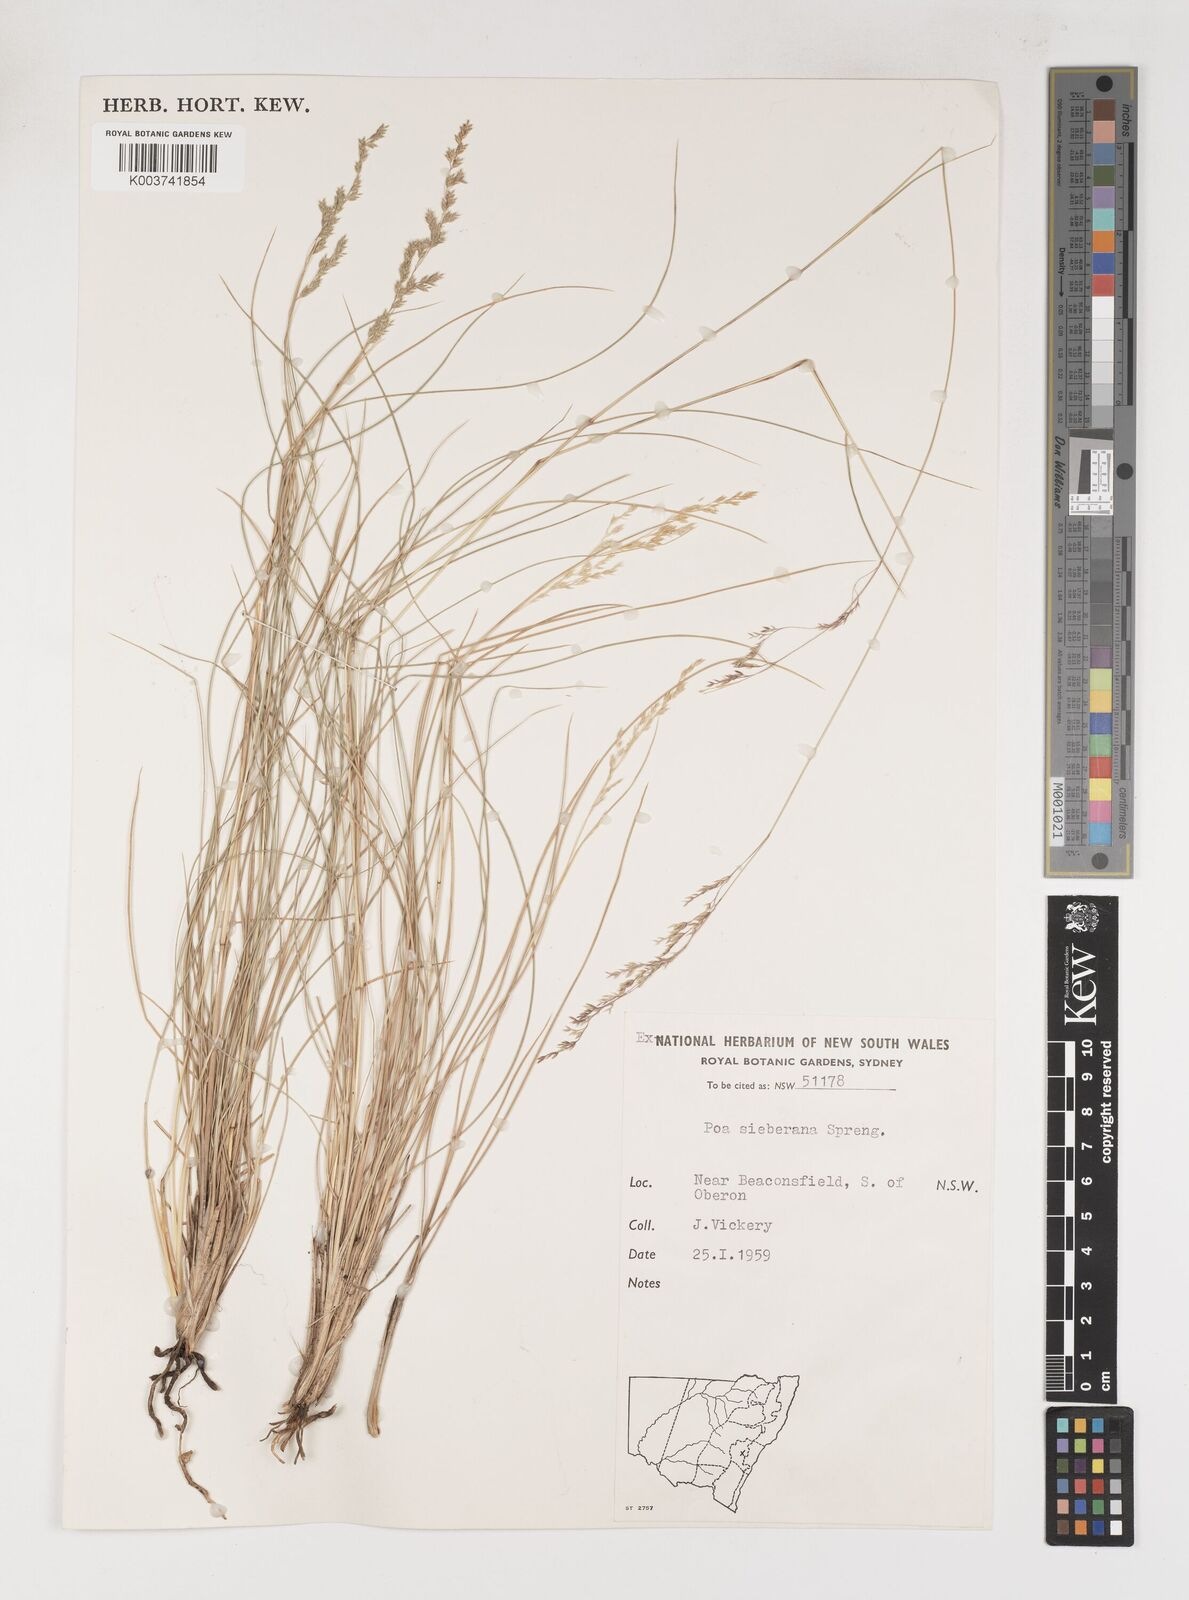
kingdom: Plantae
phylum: Tracheophyta
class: Liliopsida
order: Poales
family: Poaceae
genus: Poa
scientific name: Poa sieberiana
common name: Tussock poa
